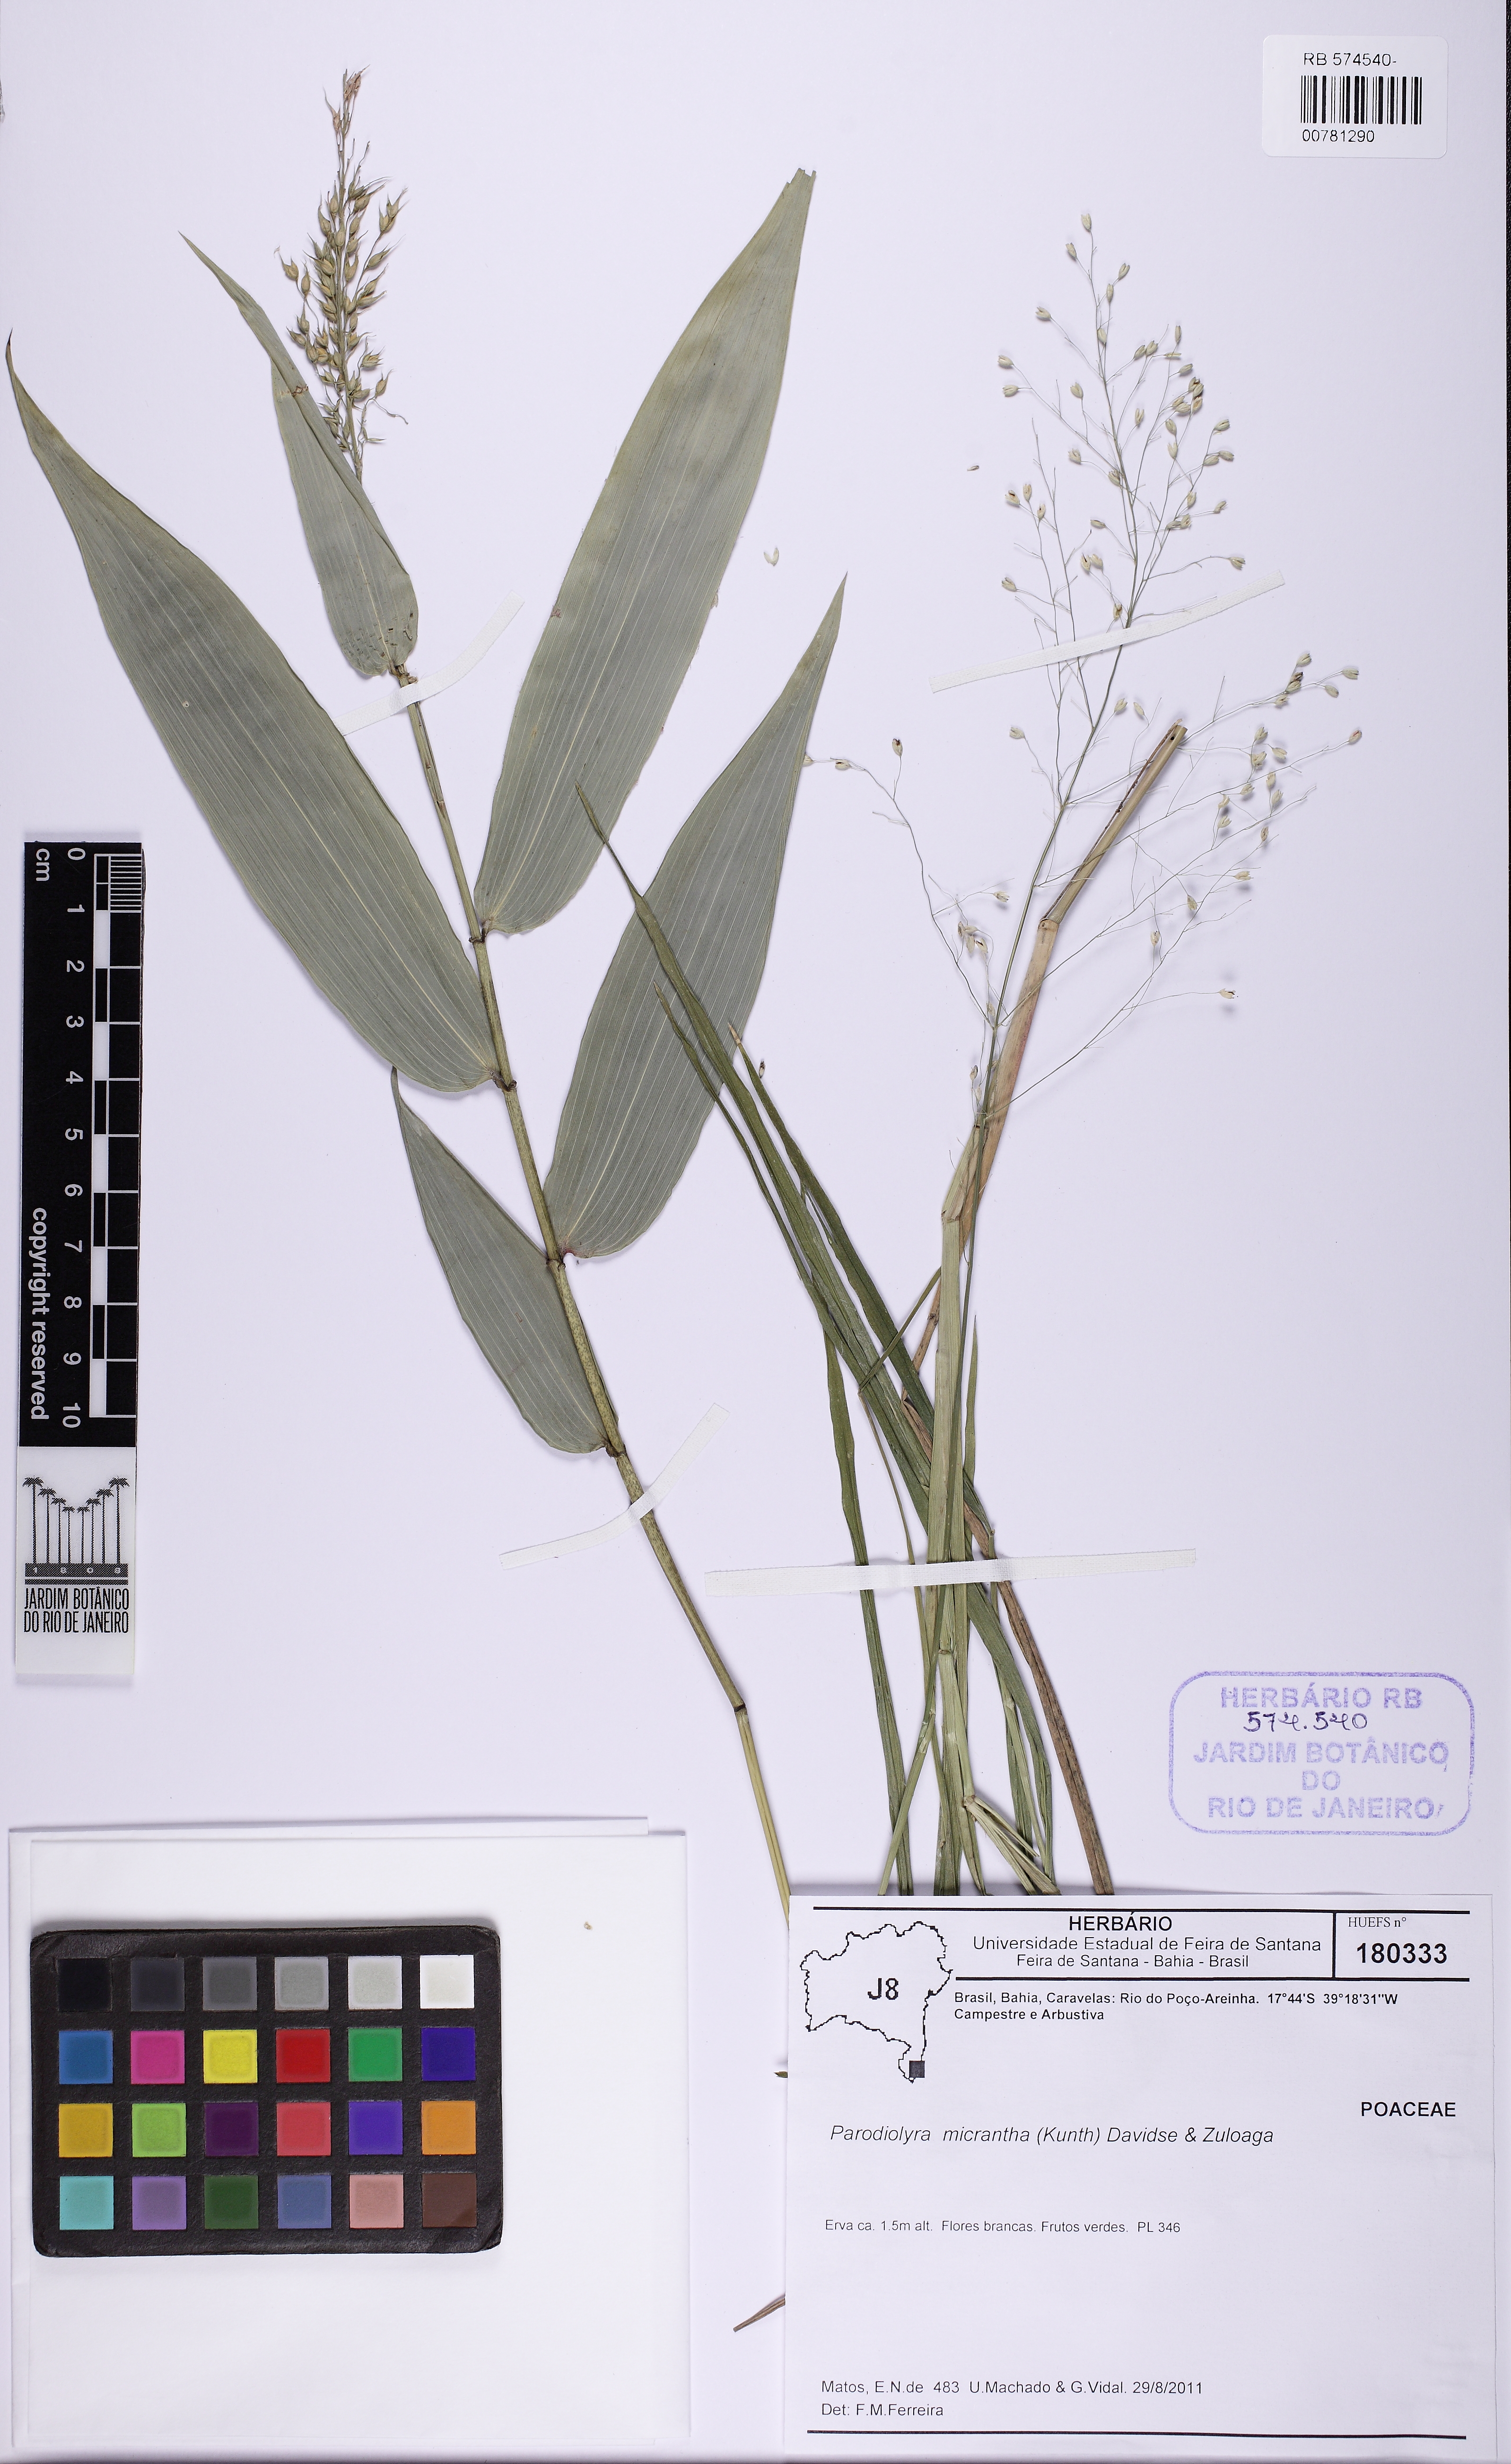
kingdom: Plantae
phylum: Tracheophyta
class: Liliopsida
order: Poales
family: Poaceae
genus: Taquara
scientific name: Taquara micrantha
